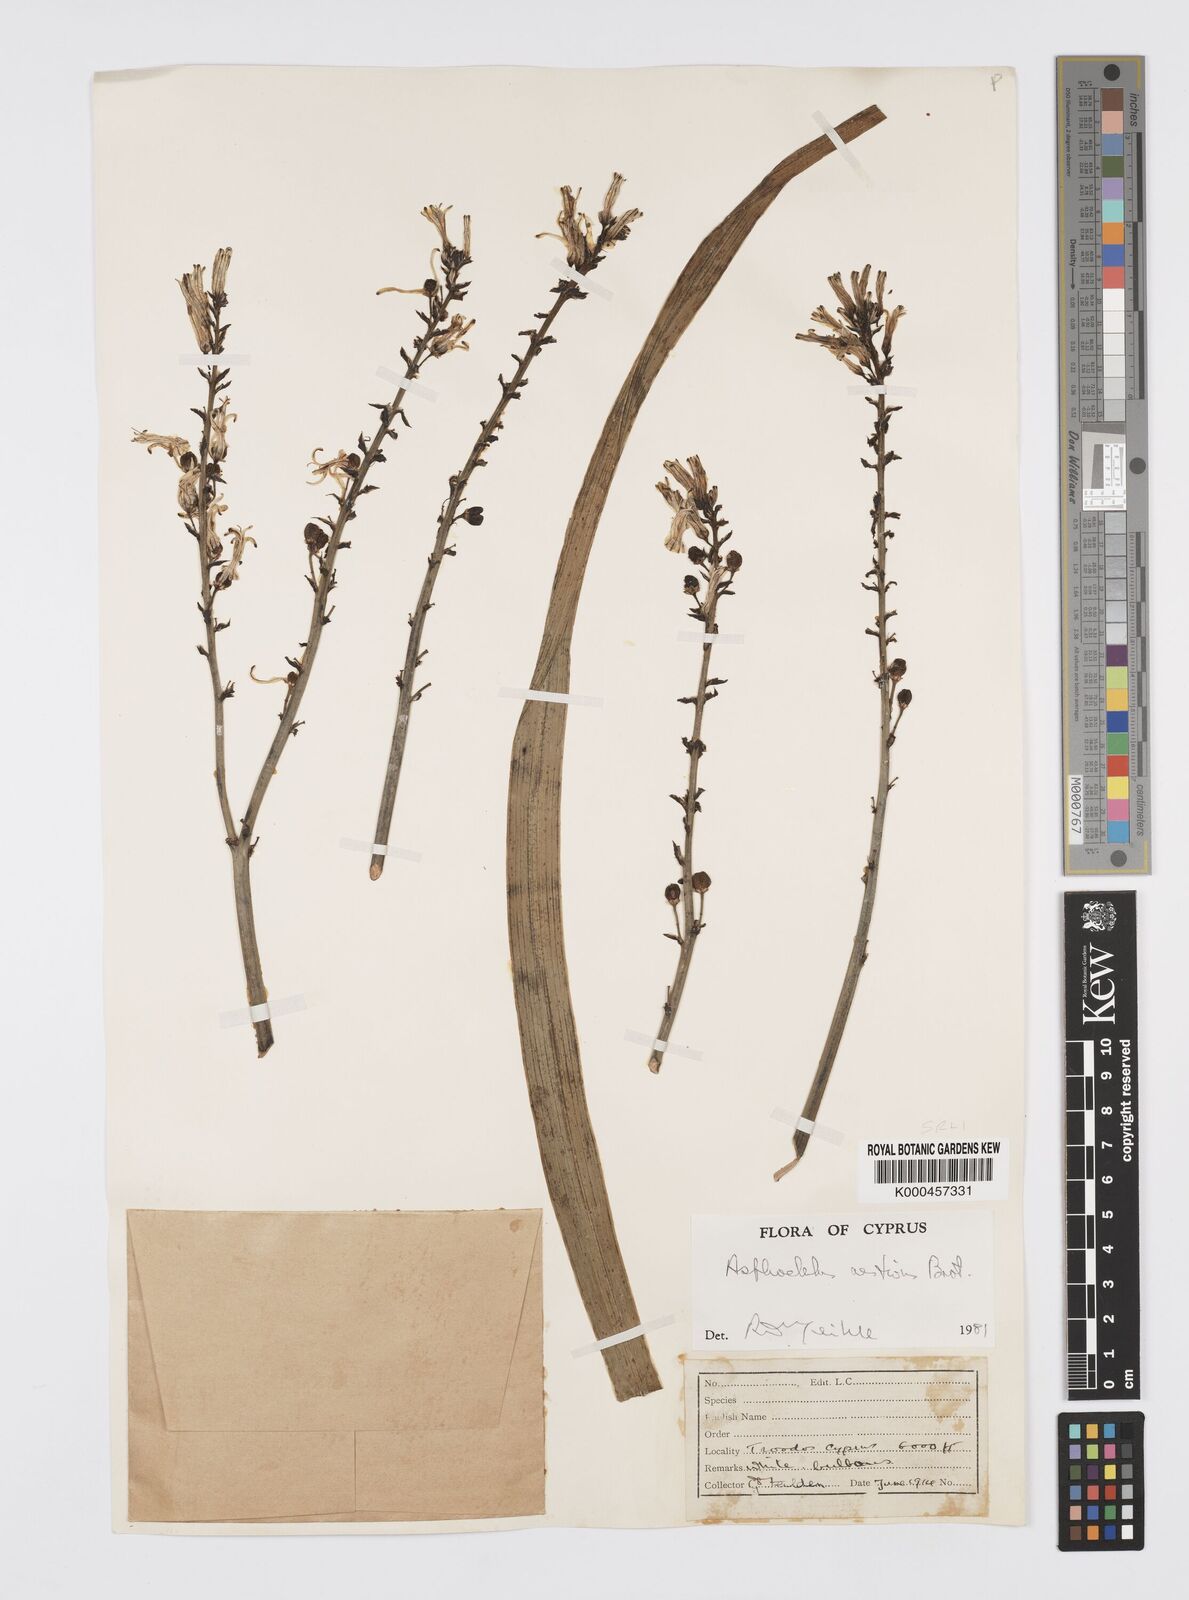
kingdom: Plantae
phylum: Tracheophyta
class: Liliopsida
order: Asparagales
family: Asphodelaceae
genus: Asphodelus
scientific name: Asphodelus aestivus
